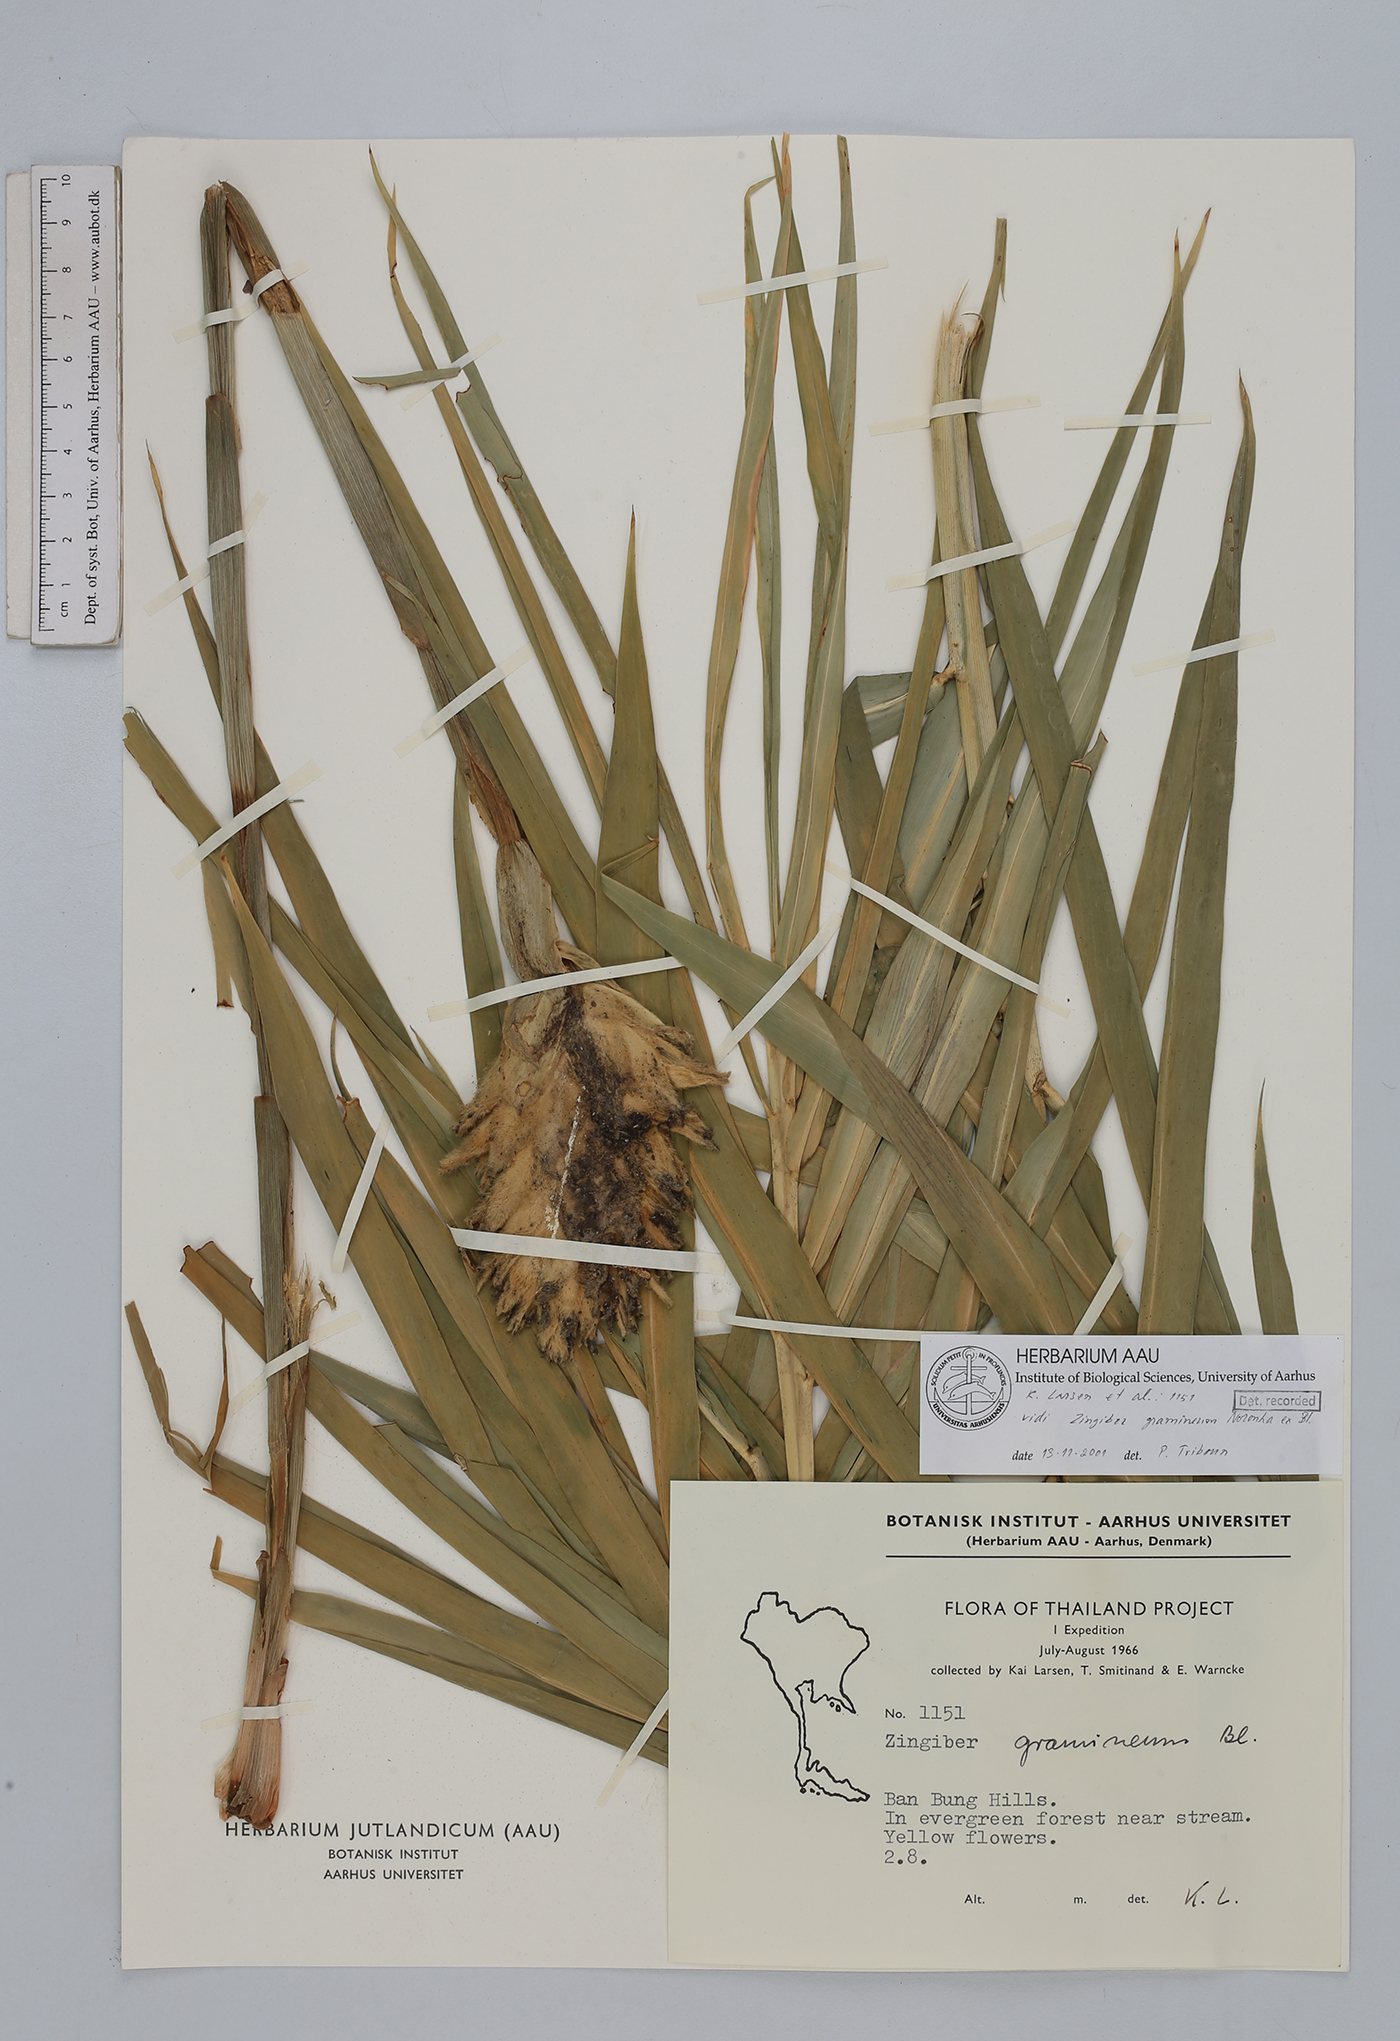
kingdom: Plantae
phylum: Tracheophyta
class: Liliopsida
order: Zingiberales
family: Zingiberaceae
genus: Zingiber
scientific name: Zingiber gramineum
